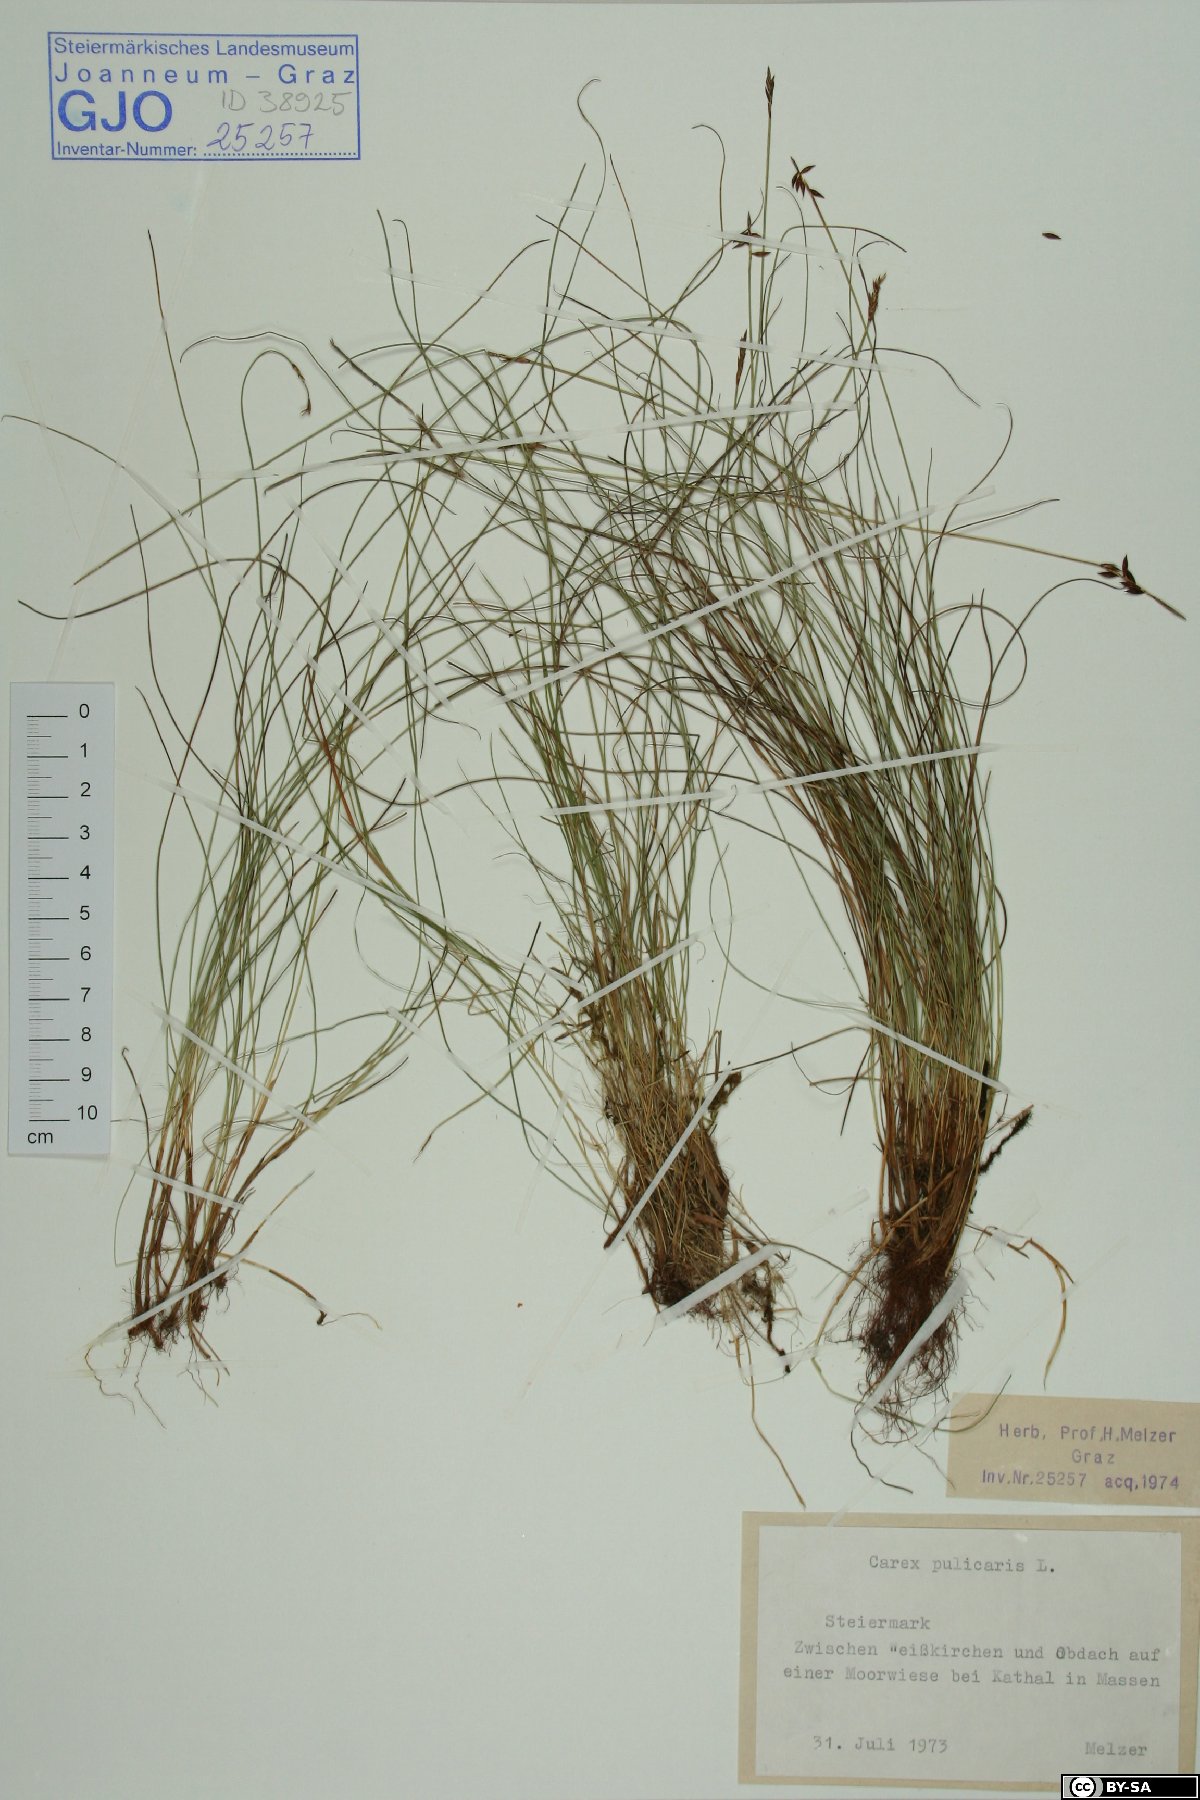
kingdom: Plantae
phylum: Tracheophyta
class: Liliopsida
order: Poales
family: Cyperaceae
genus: Carex
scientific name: Carex pulicaris
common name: Flea sedge
